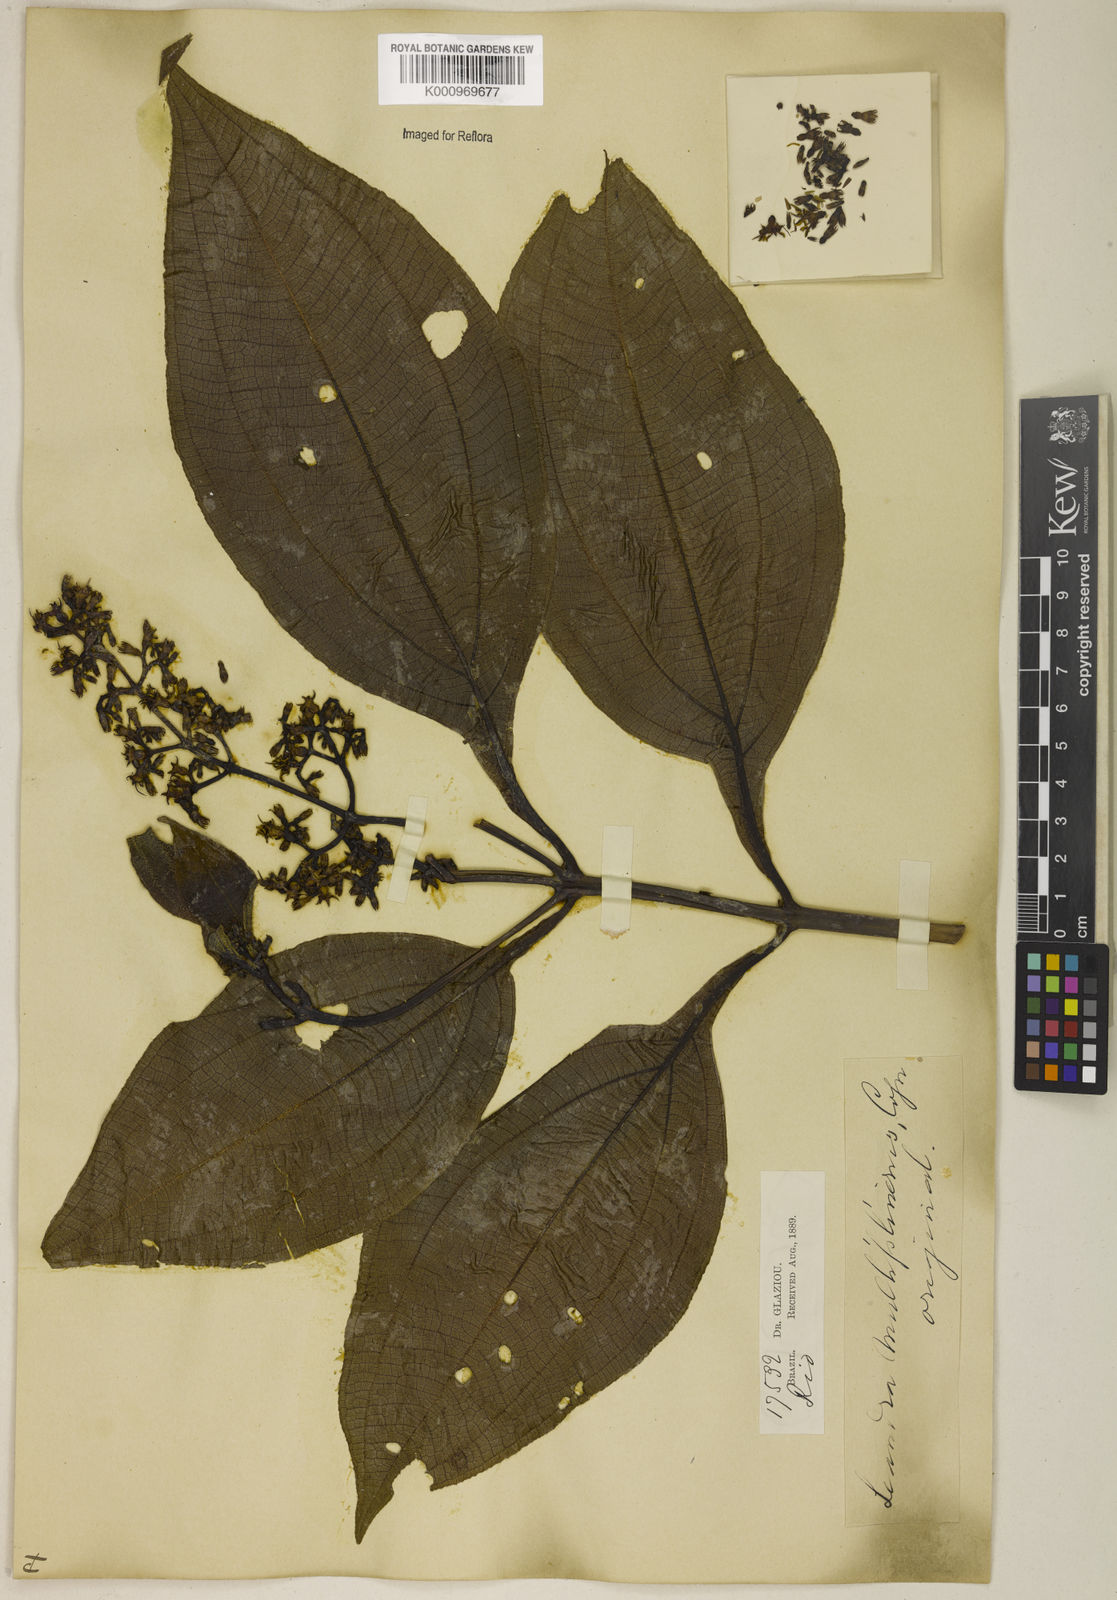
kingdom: Plantae
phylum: Tracheophyta
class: Magnoliopsida
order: Myrtales
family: Melastomataceae
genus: Miconia
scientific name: Miconia oocarpa
